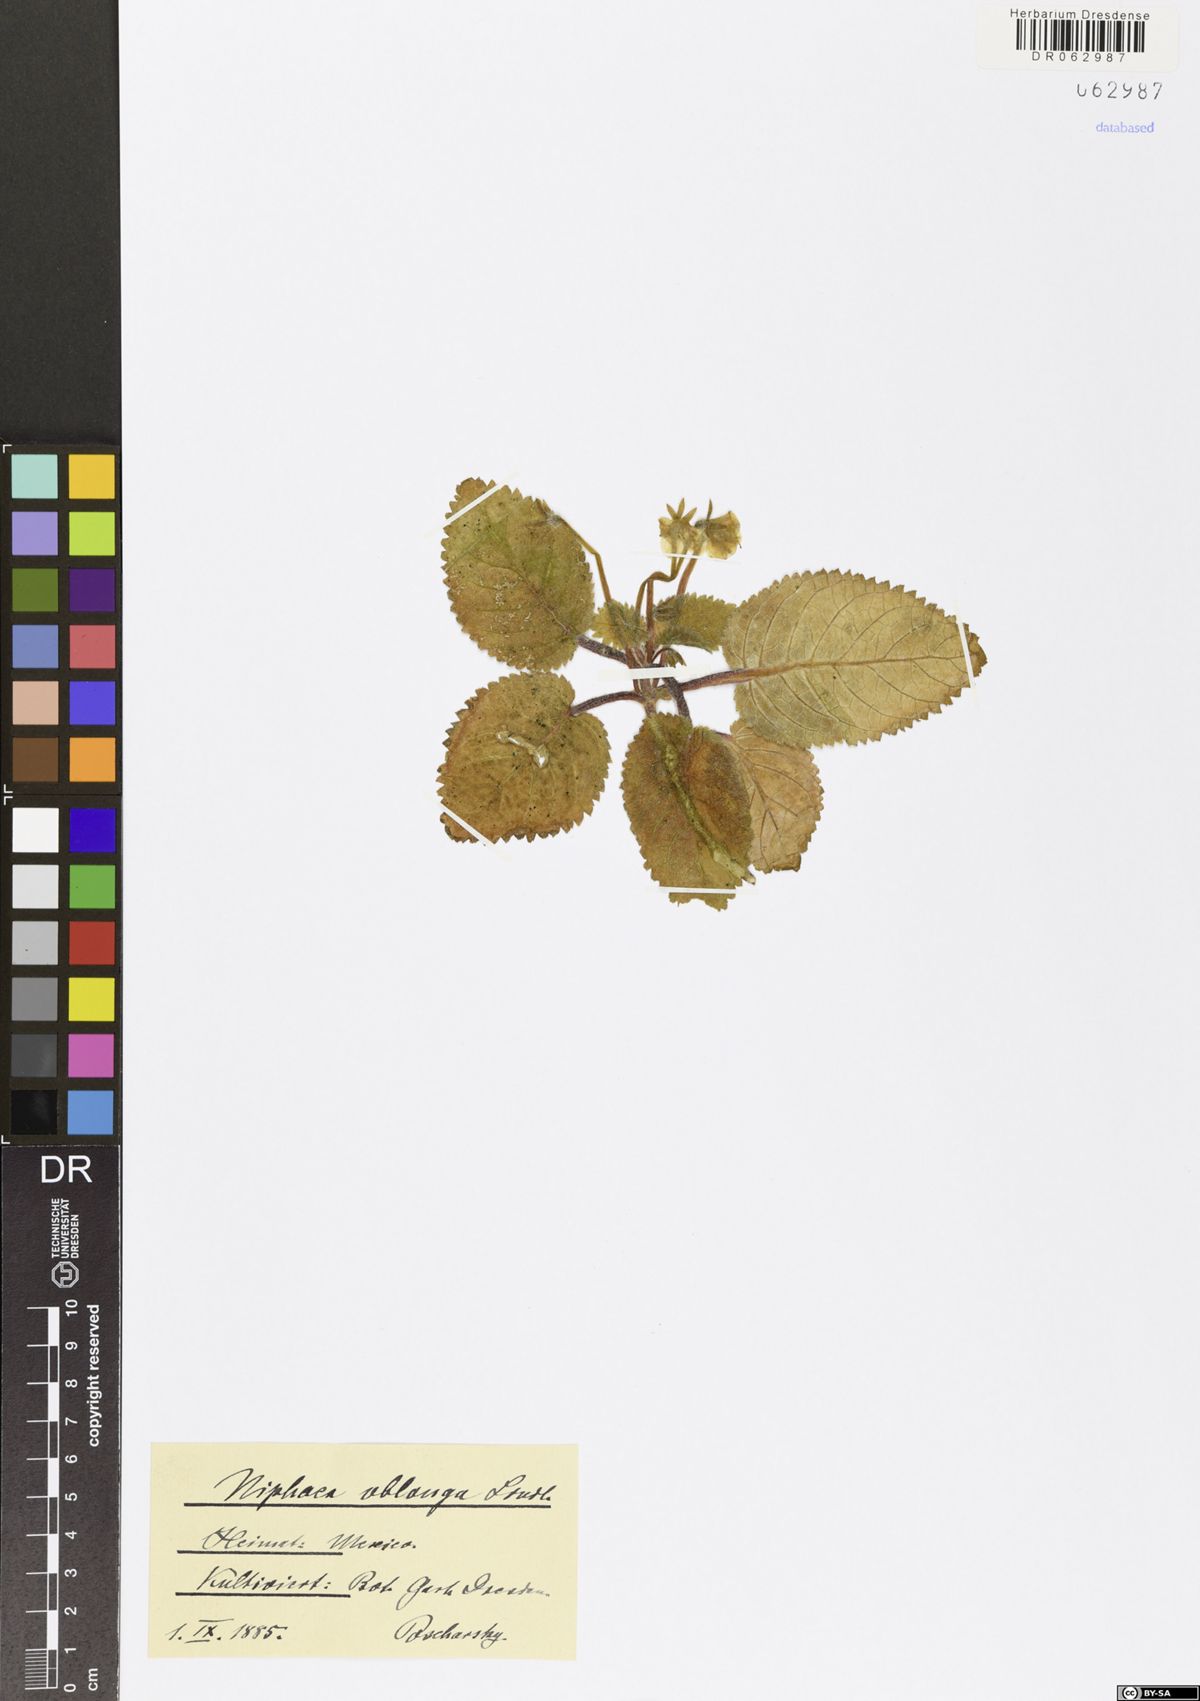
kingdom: Plantae
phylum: Tracheophyta
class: Magnoliopsida
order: Lamiales
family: Gesneriaceae
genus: Niphaea
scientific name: Niphaea oblonga
